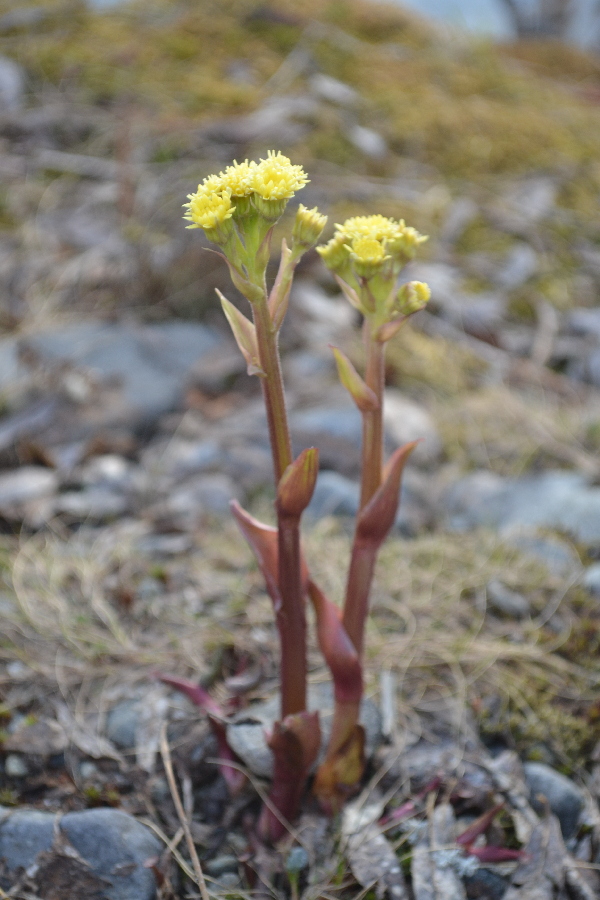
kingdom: Plantae
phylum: Tracheophyta
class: Magnoliopsida
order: Asterales
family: Asteraceae
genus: Petasites
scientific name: Petasites radiatus
